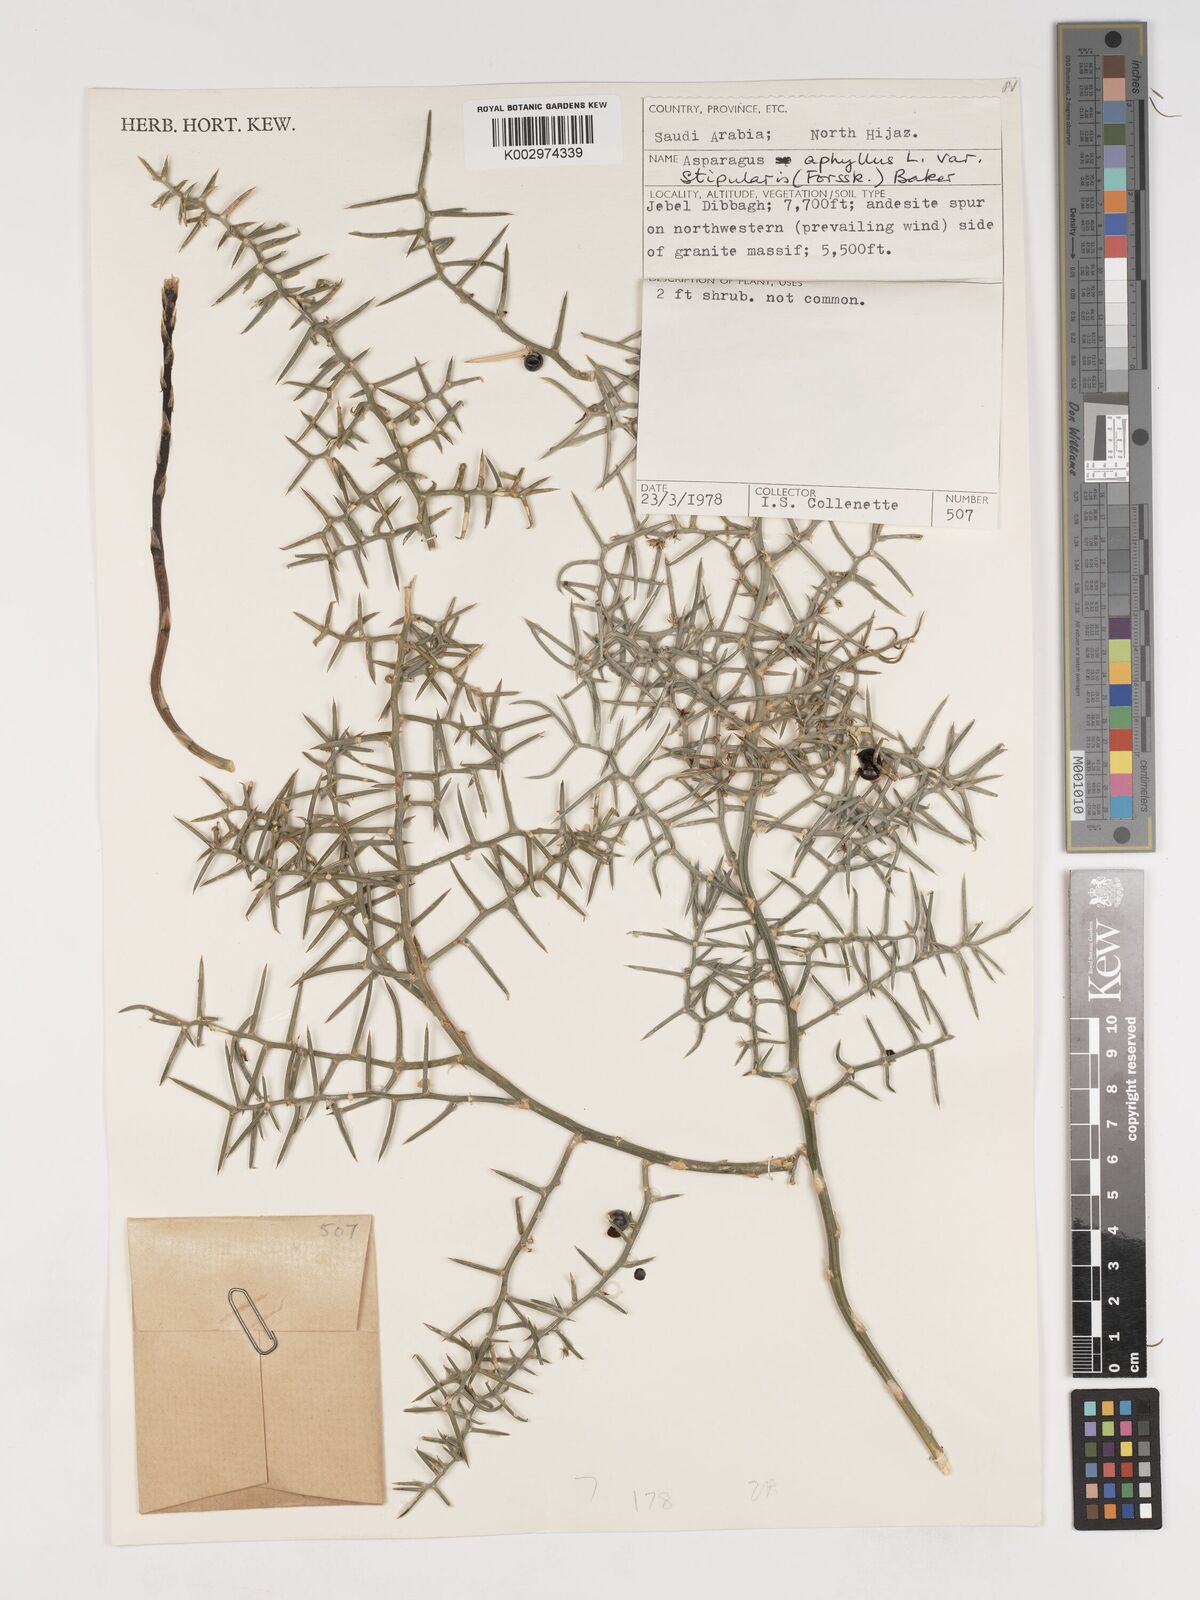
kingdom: Plantae
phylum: Tracheophyta
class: Liliopsida
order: Asparagales
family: Asparagaceae
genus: Asparagus
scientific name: Asparagus horridus
